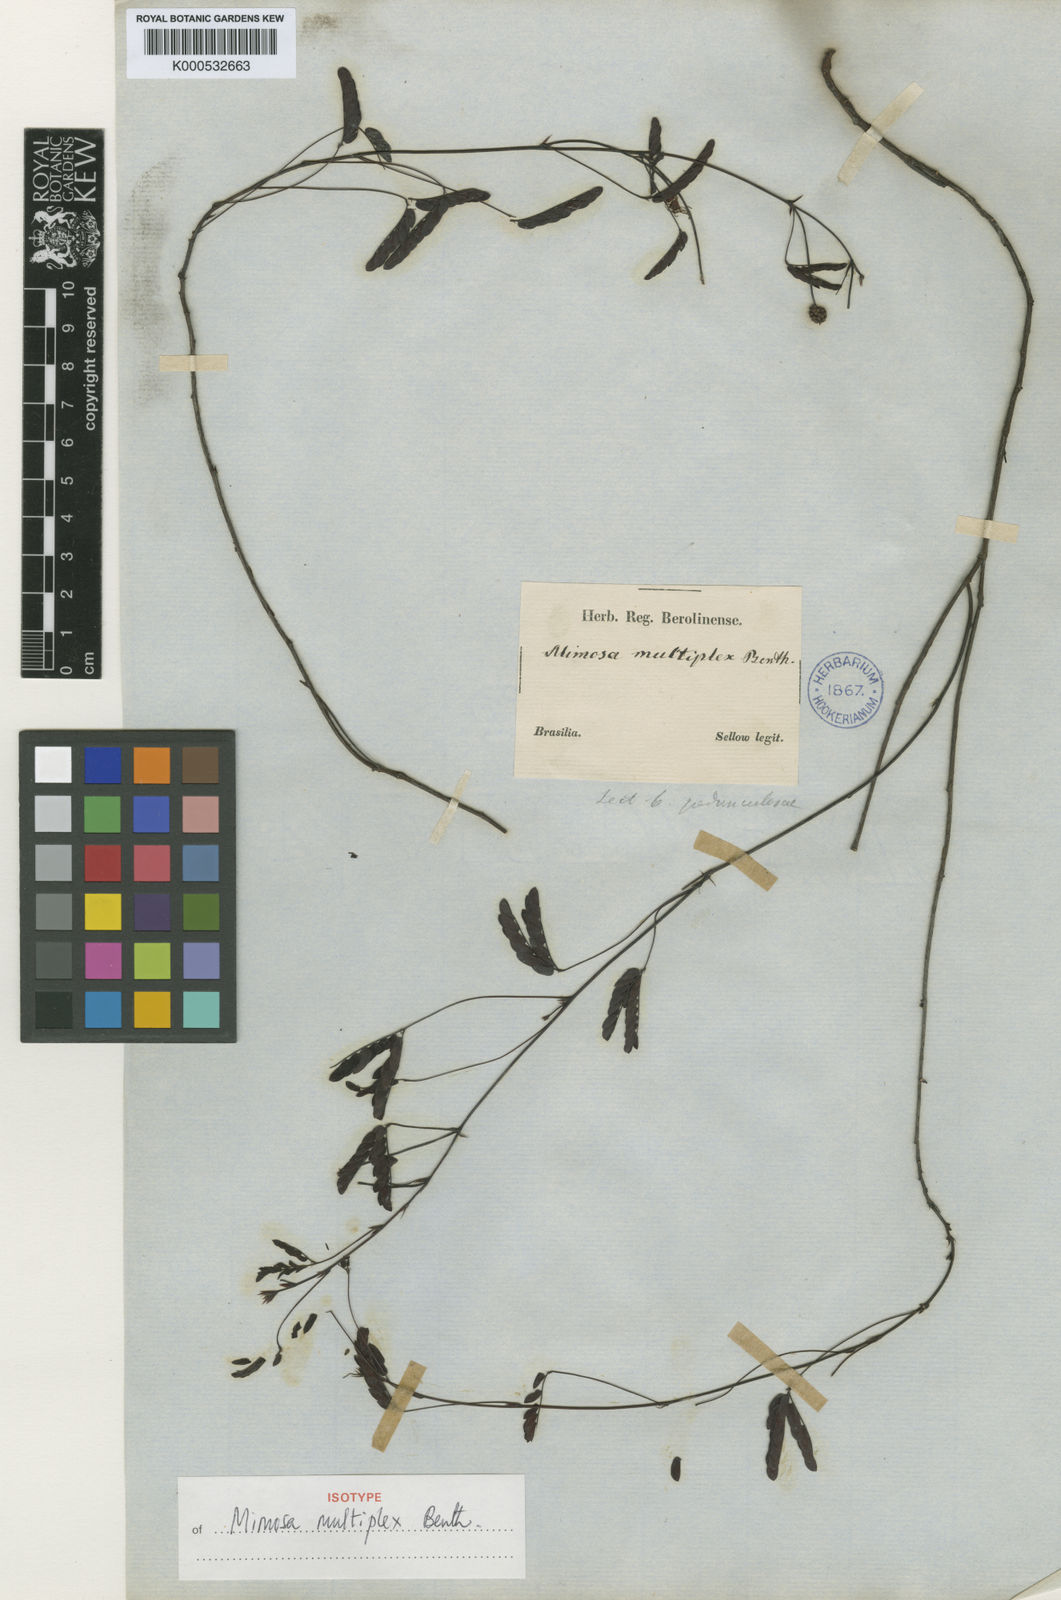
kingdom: Plantae
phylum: Tracheophyta
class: Magnoliopsida
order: Fabales
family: Fabaceae
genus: Mimosa
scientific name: Mimosa multiplex
